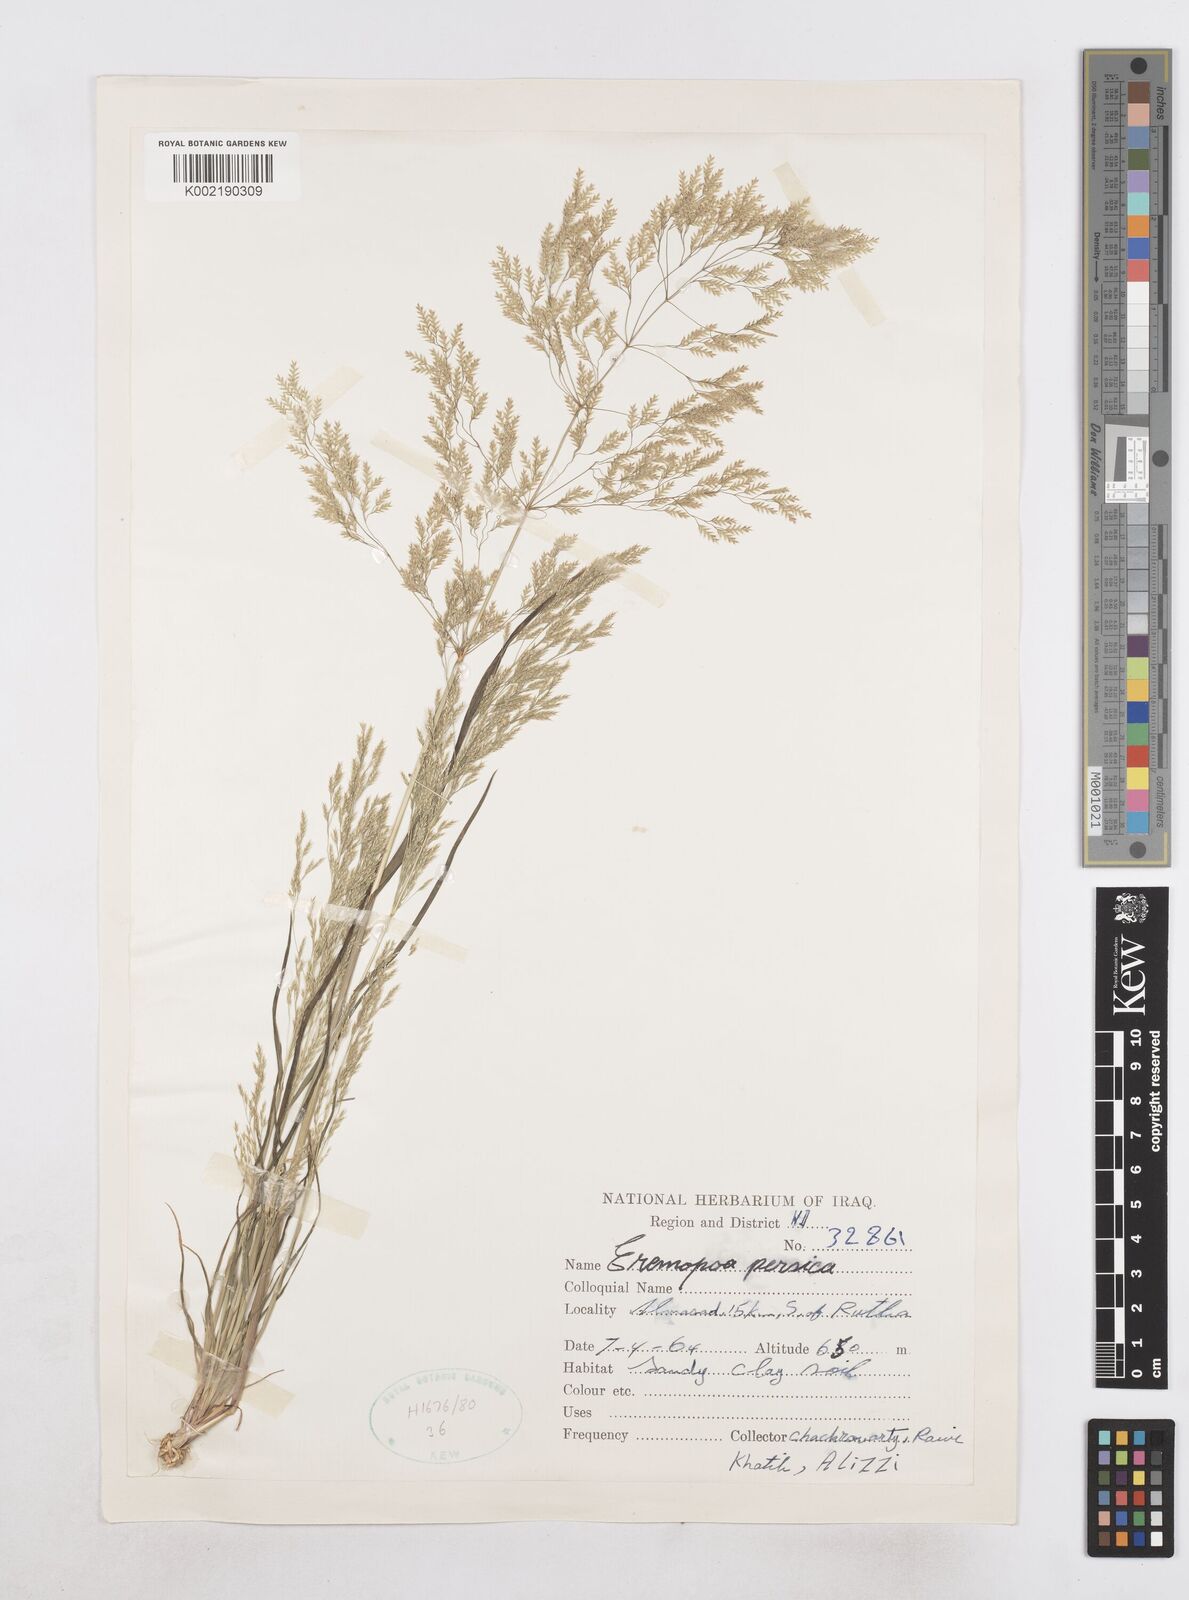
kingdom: Plantae
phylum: Tracheophyta
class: Liliopsida
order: Poales
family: Poaceae
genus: Poa
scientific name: Poa persica
